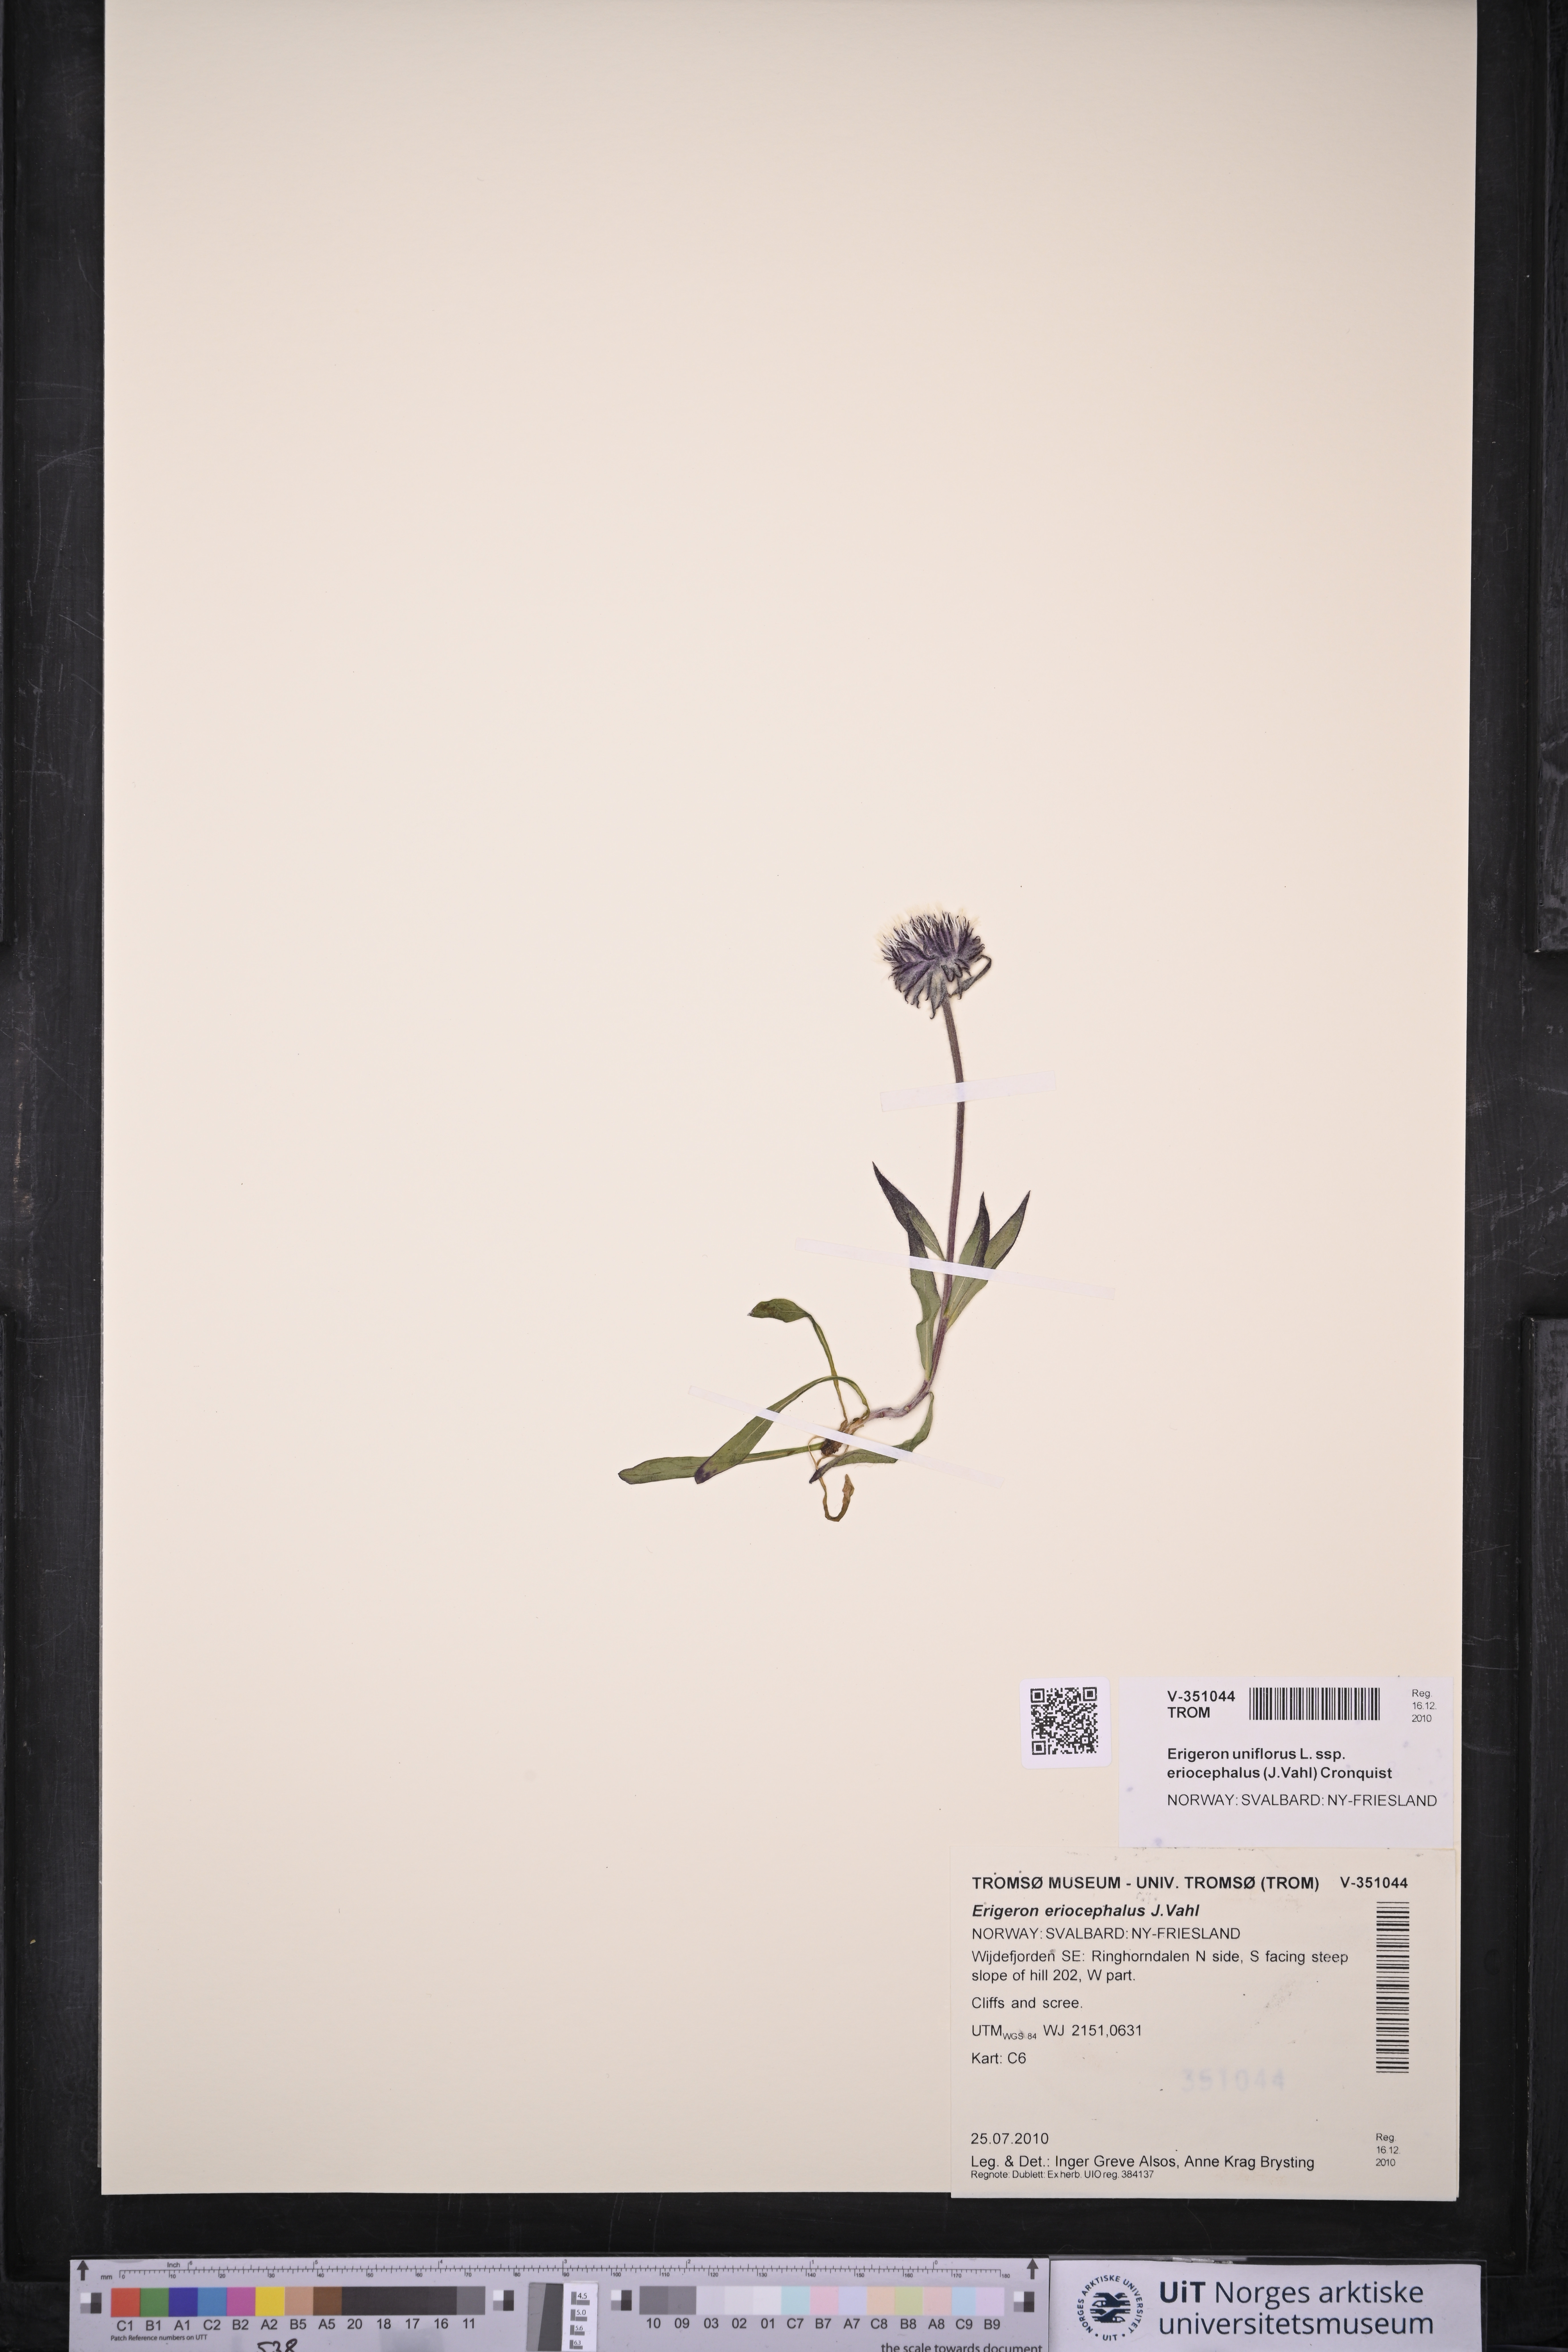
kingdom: Plantae
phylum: Tracheophyta
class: Magnoliopsida
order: Asterales
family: Asteraceae
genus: Erigeron
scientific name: Erigeron eriocephalus
